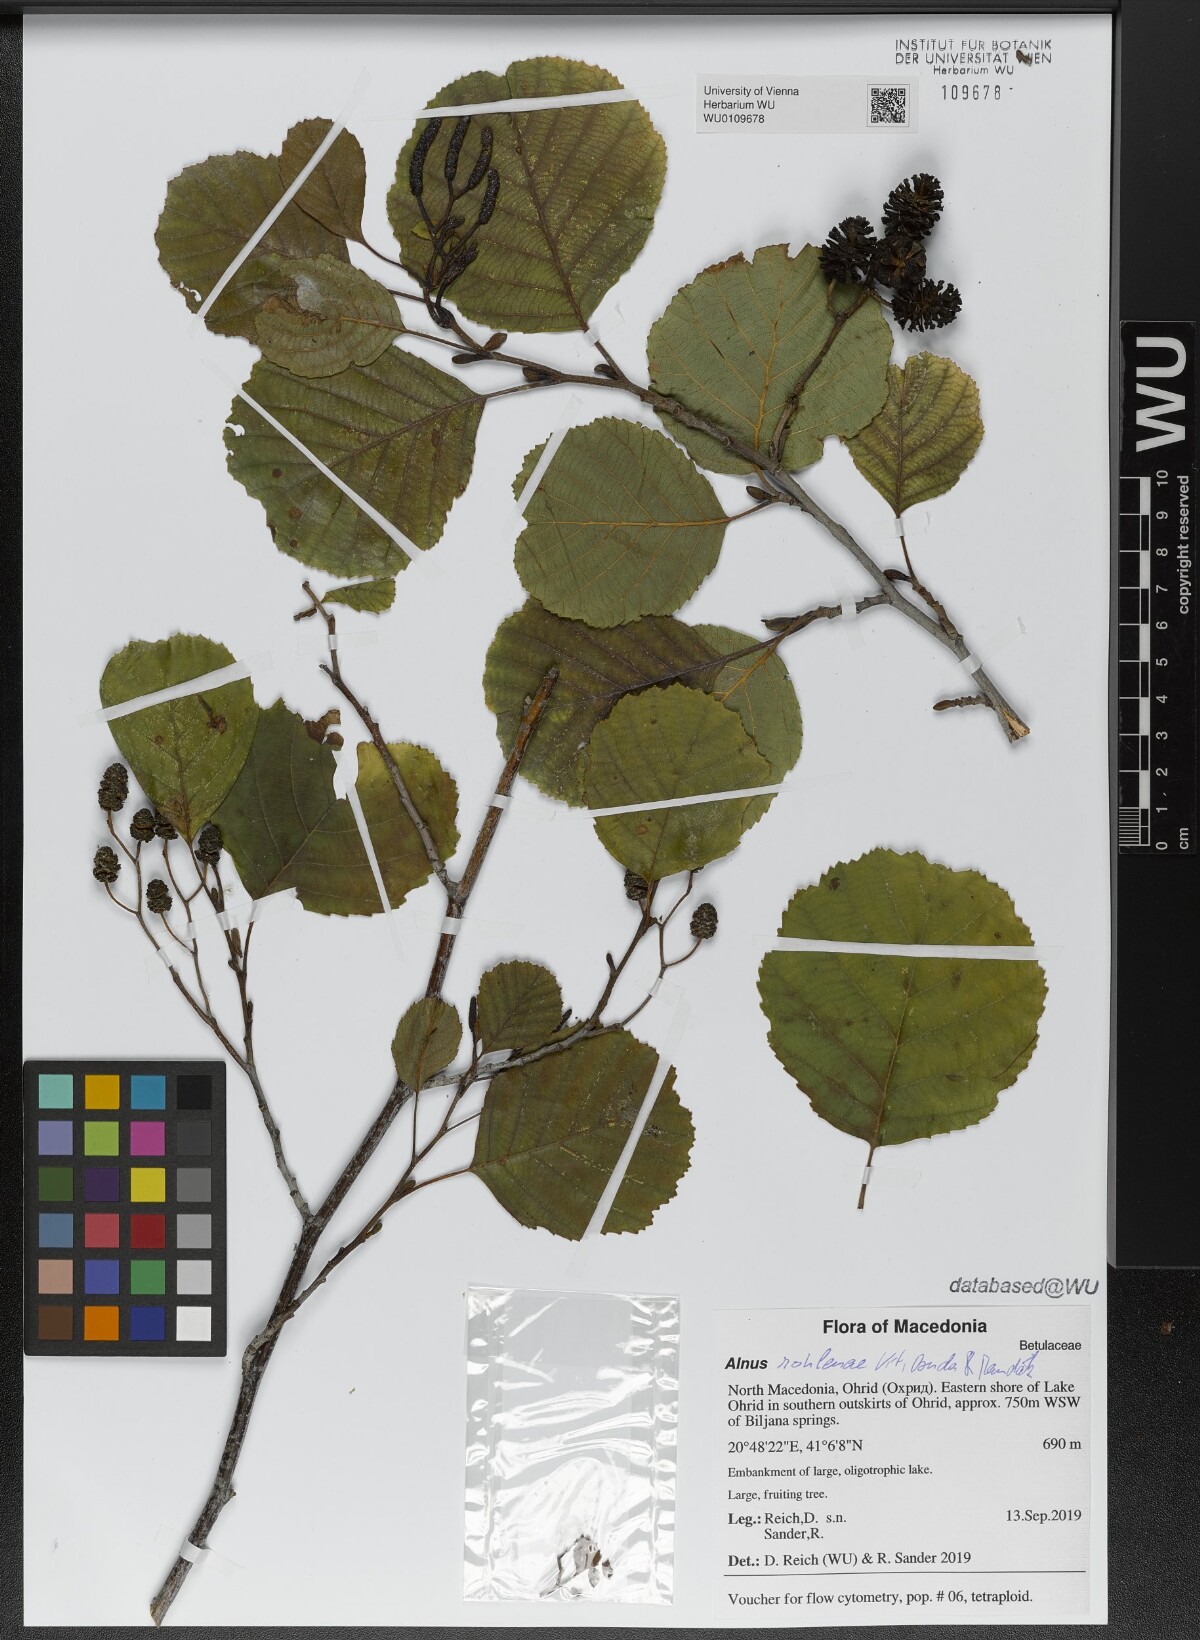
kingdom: Plantae
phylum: Tracheophyta
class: Magnoliopsida
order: Fagales
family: Betulaceae
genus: Alnus
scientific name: Alnus rohlenae
